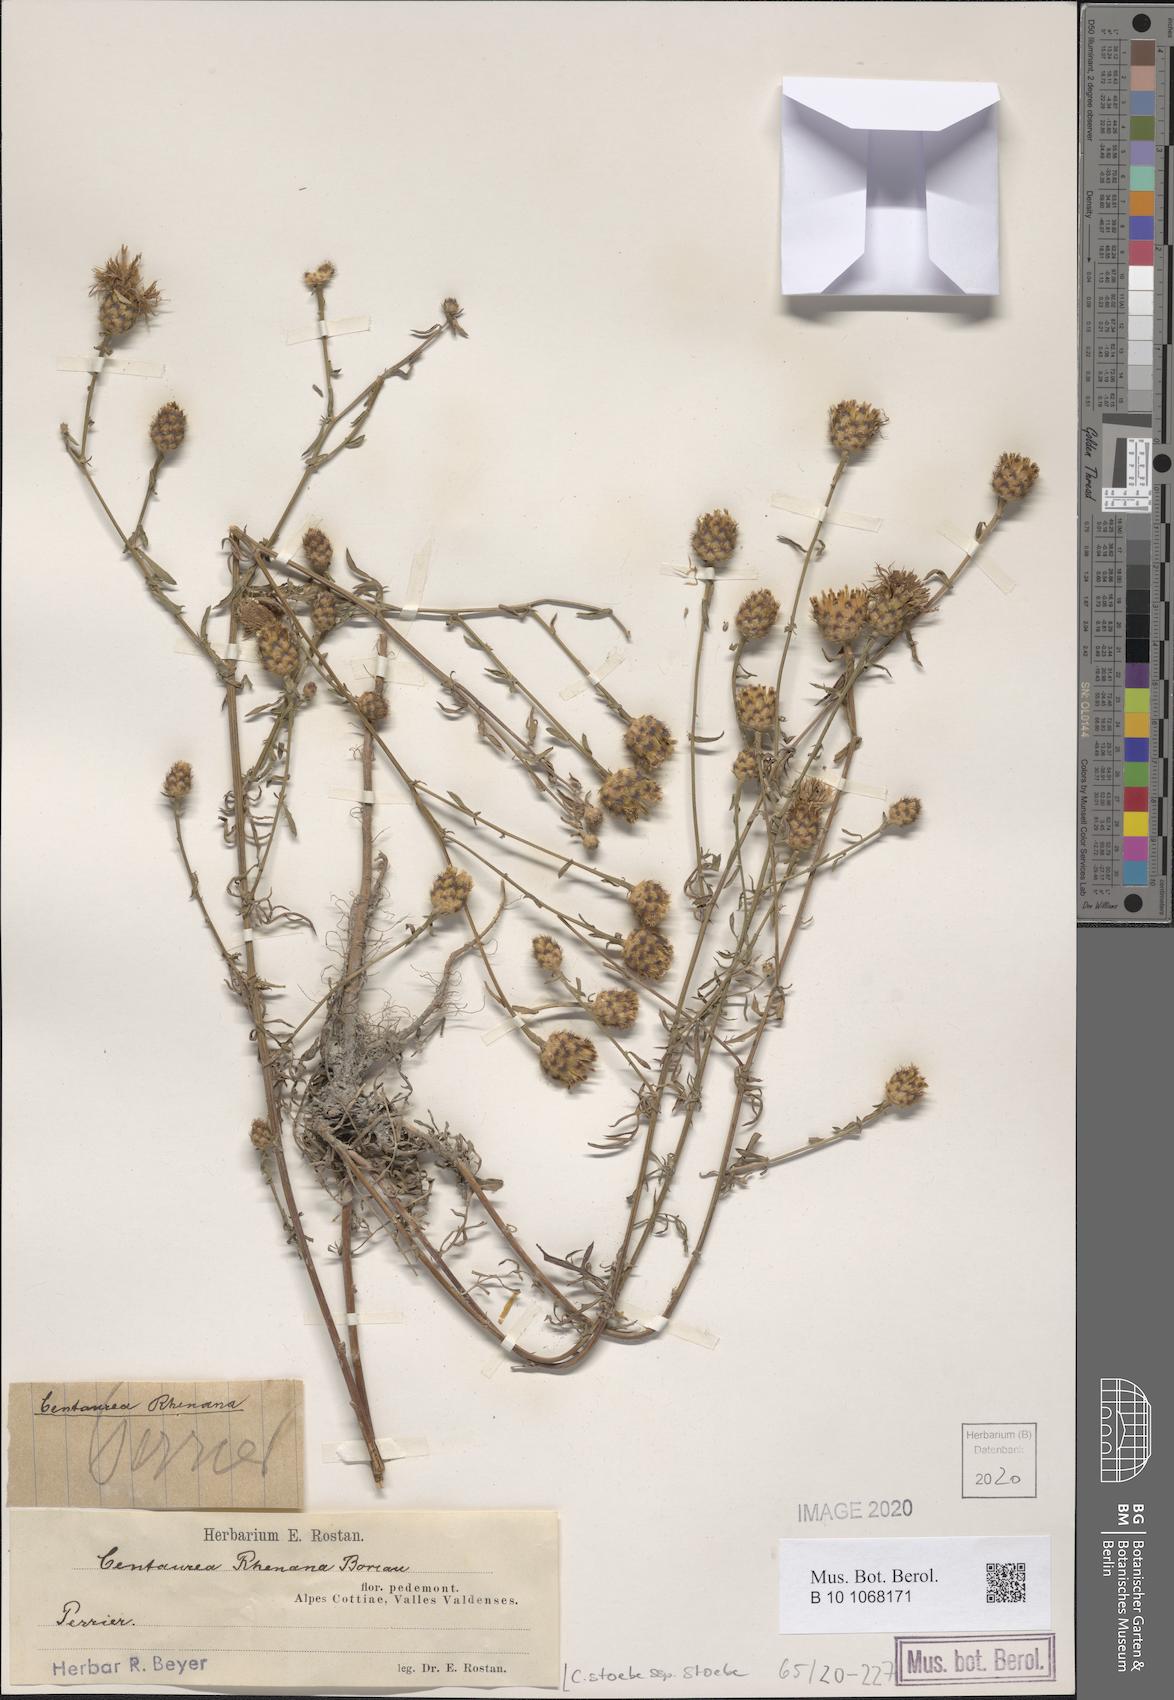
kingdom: Plantae
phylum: Tracheophyta
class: Magnoliopsida
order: Asterales
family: Asteraceae
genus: Centaurea
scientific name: Centaurea stoebe
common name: Spotted knapweed
